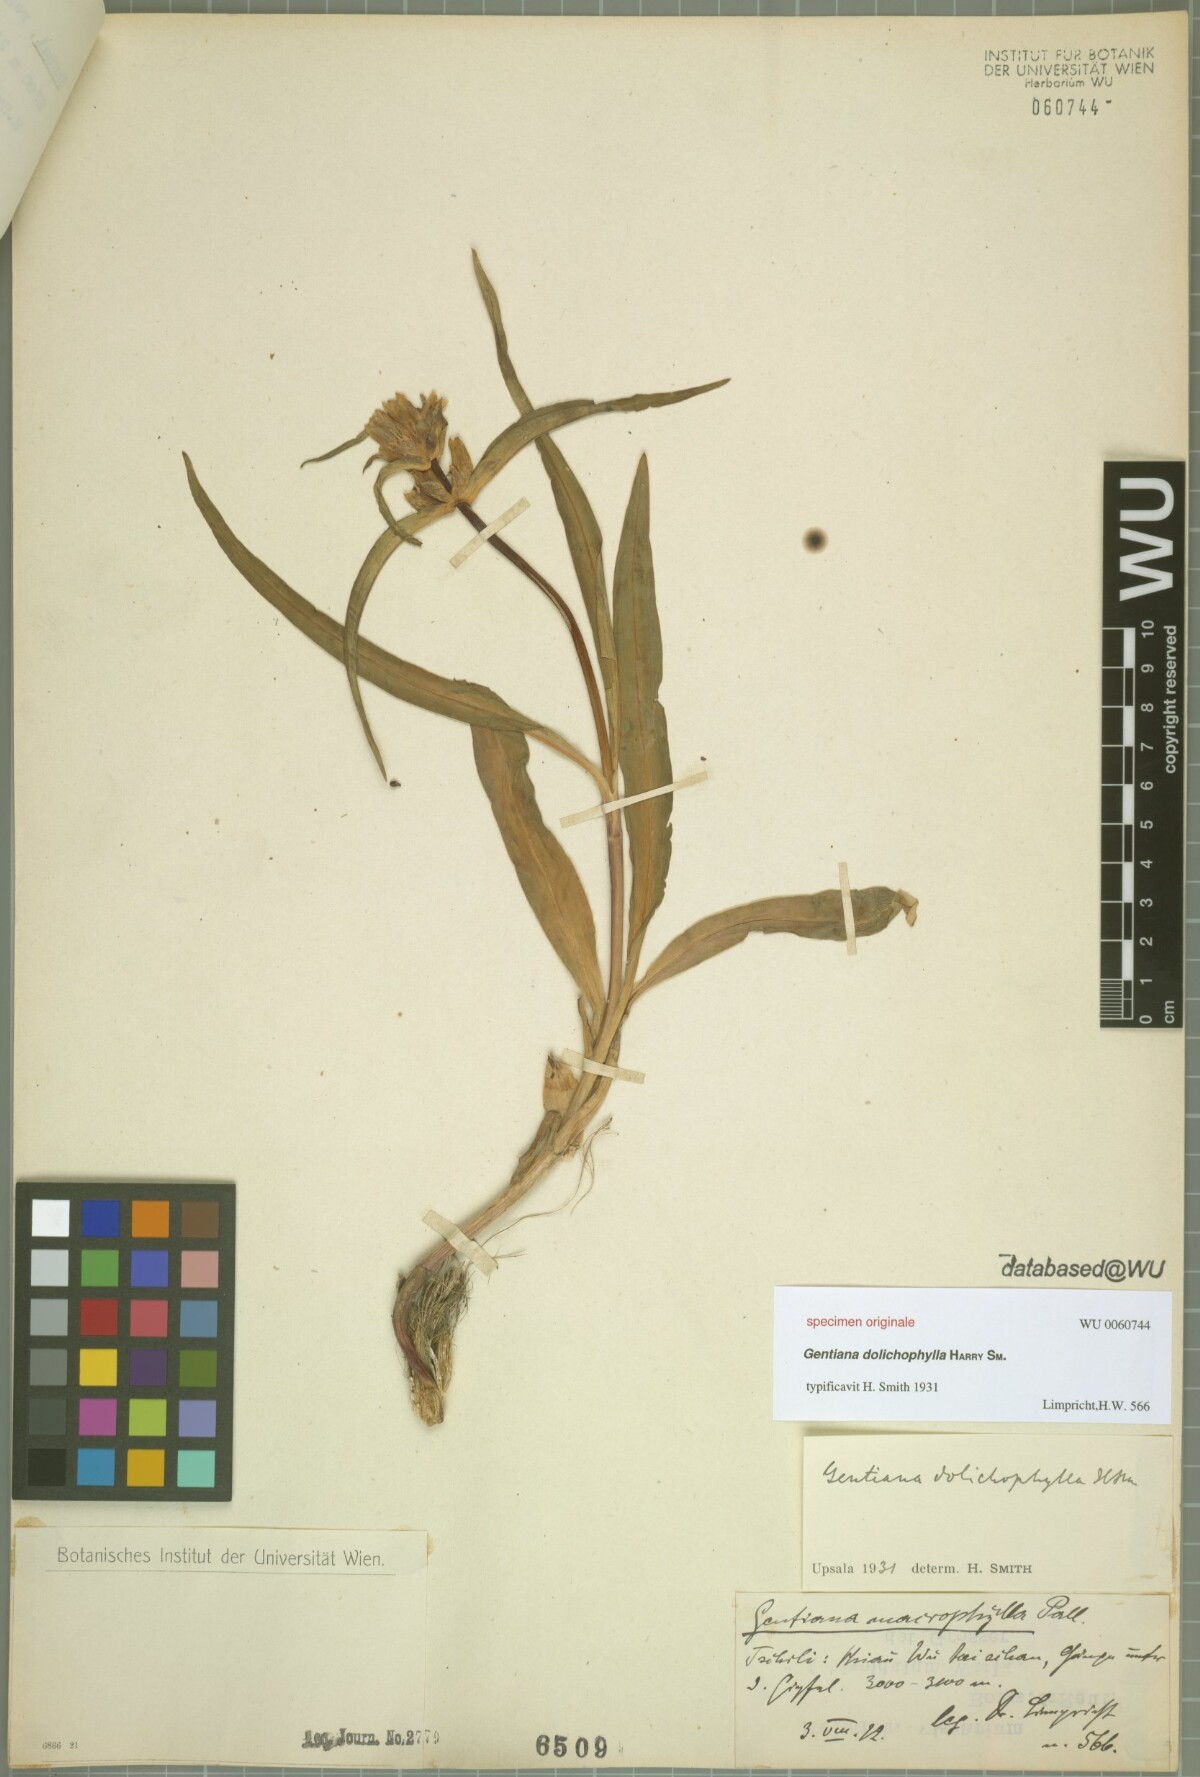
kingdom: Plantae
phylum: Tracheophyta
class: Magnoliopsida
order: Gentianales
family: Gentianaceae
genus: Gentiana
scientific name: Gentiana
